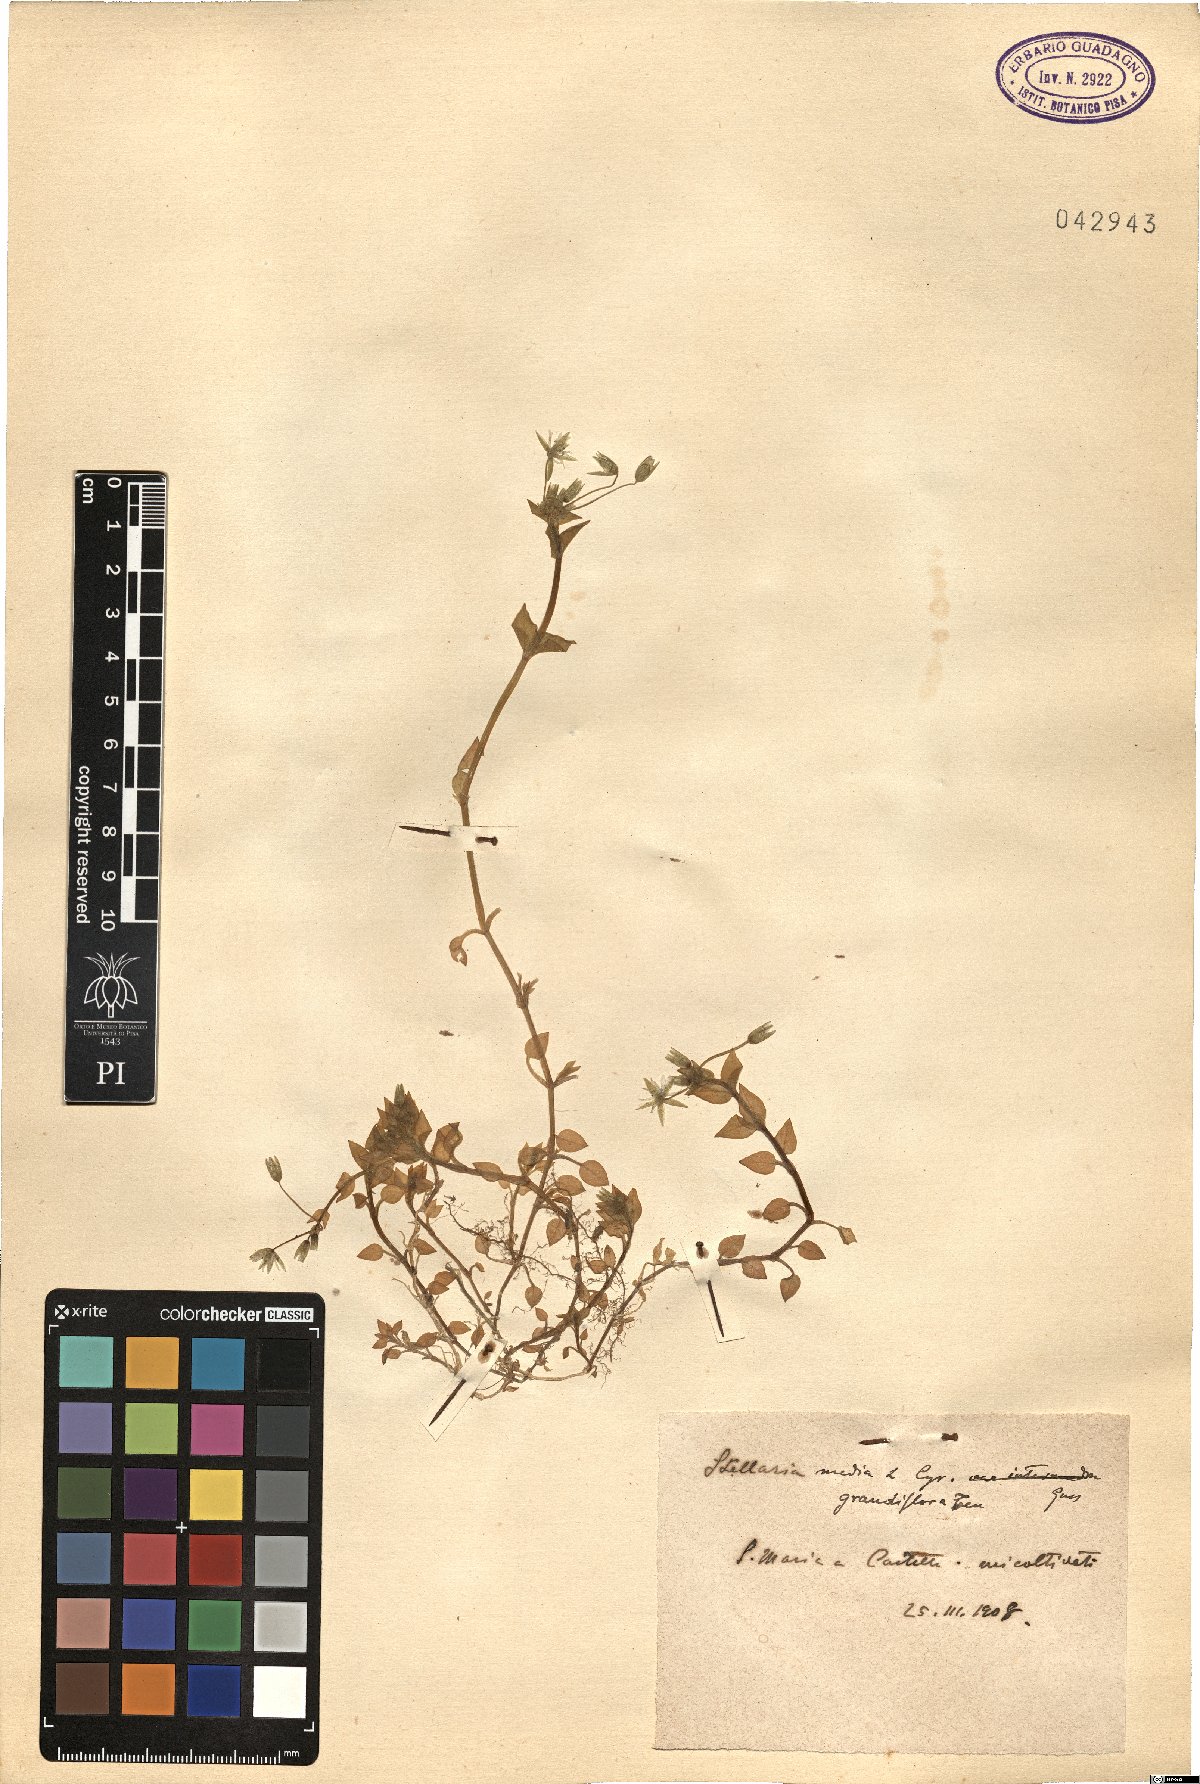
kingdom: Plantae
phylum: Tracheophyta
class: Magnoliopsida
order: Caryophyllales
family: Caryophyllaceae
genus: Stellaria
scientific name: Stellaria media
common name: Common chickweed
